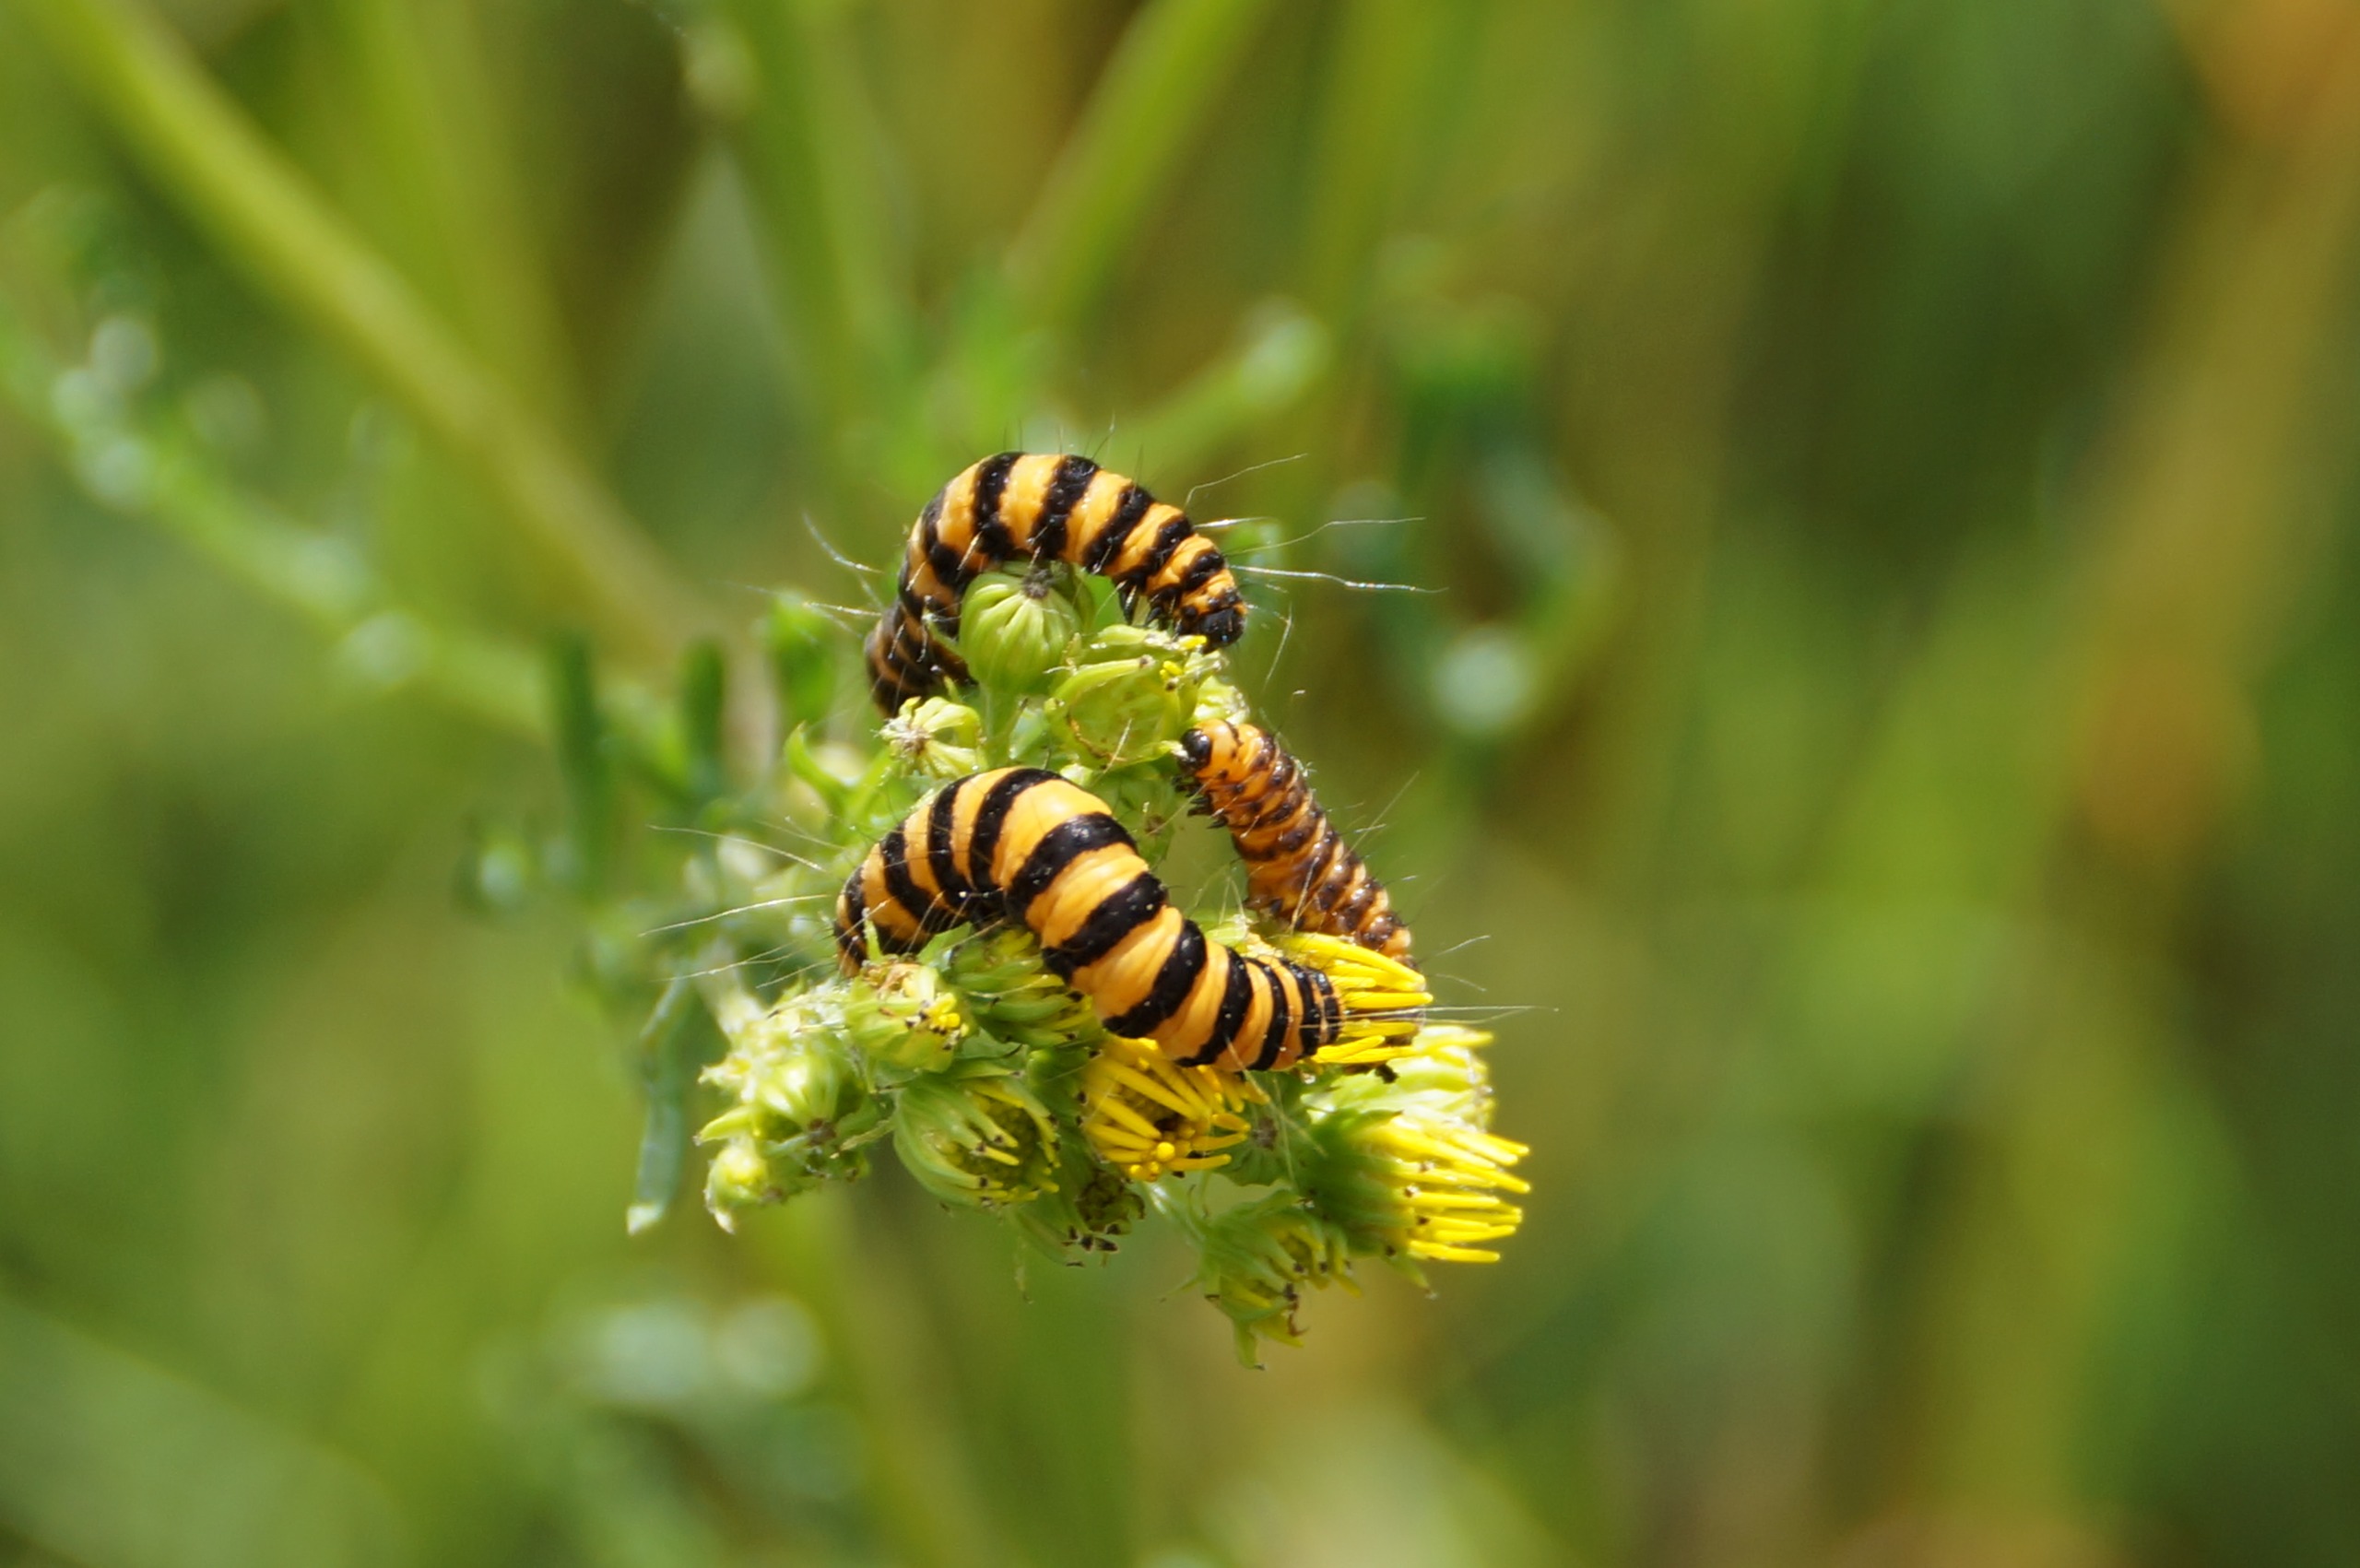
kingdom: Animalia
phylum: Arthropoda
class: Insecta
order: Lepidoptera
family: Erebidae
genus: Tyria
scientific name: Tyria jacobaeae
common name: Blodplet
